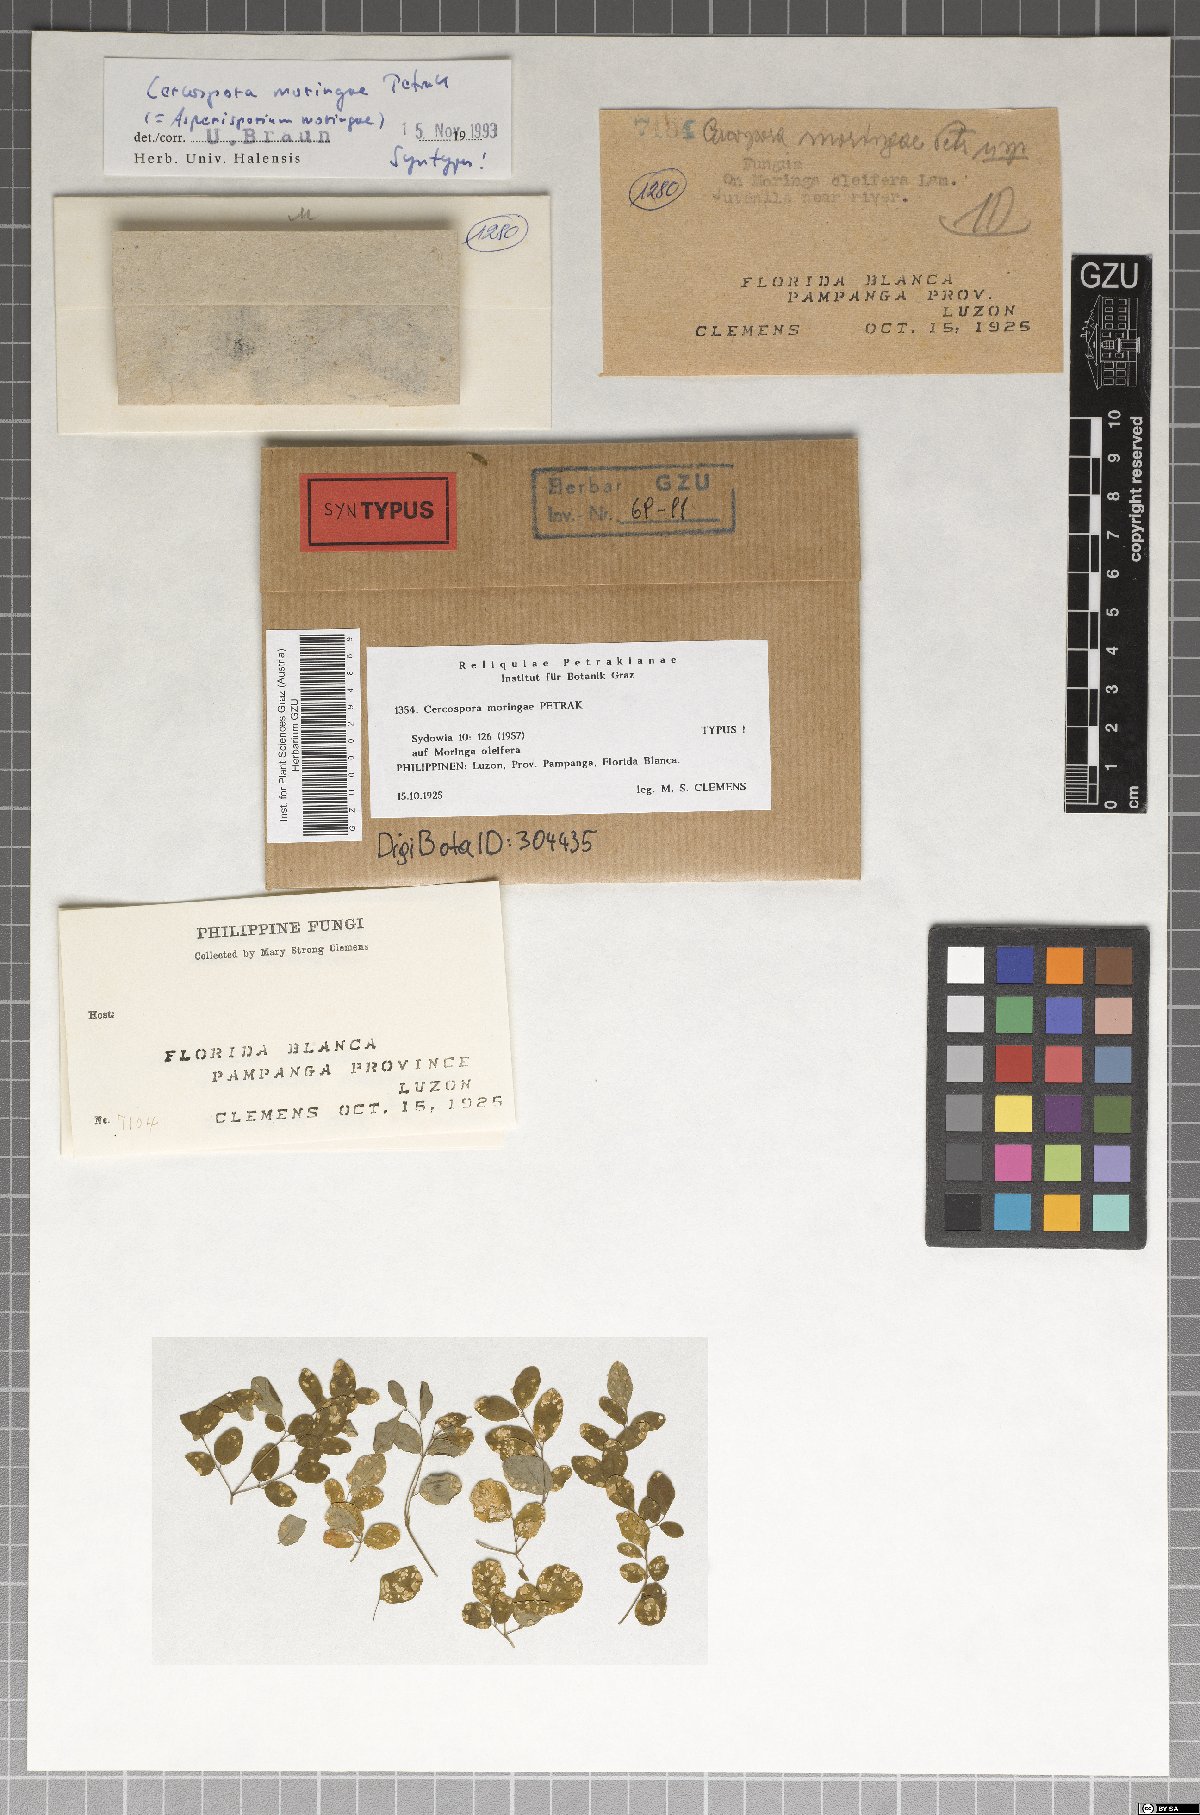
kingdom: Fungi
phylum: Ascomycota
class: Dothideomycetes
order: Mycosphaerellales
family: Mycosphaerellaceae
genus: Asperisporium
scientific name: Asperisporium moringae
